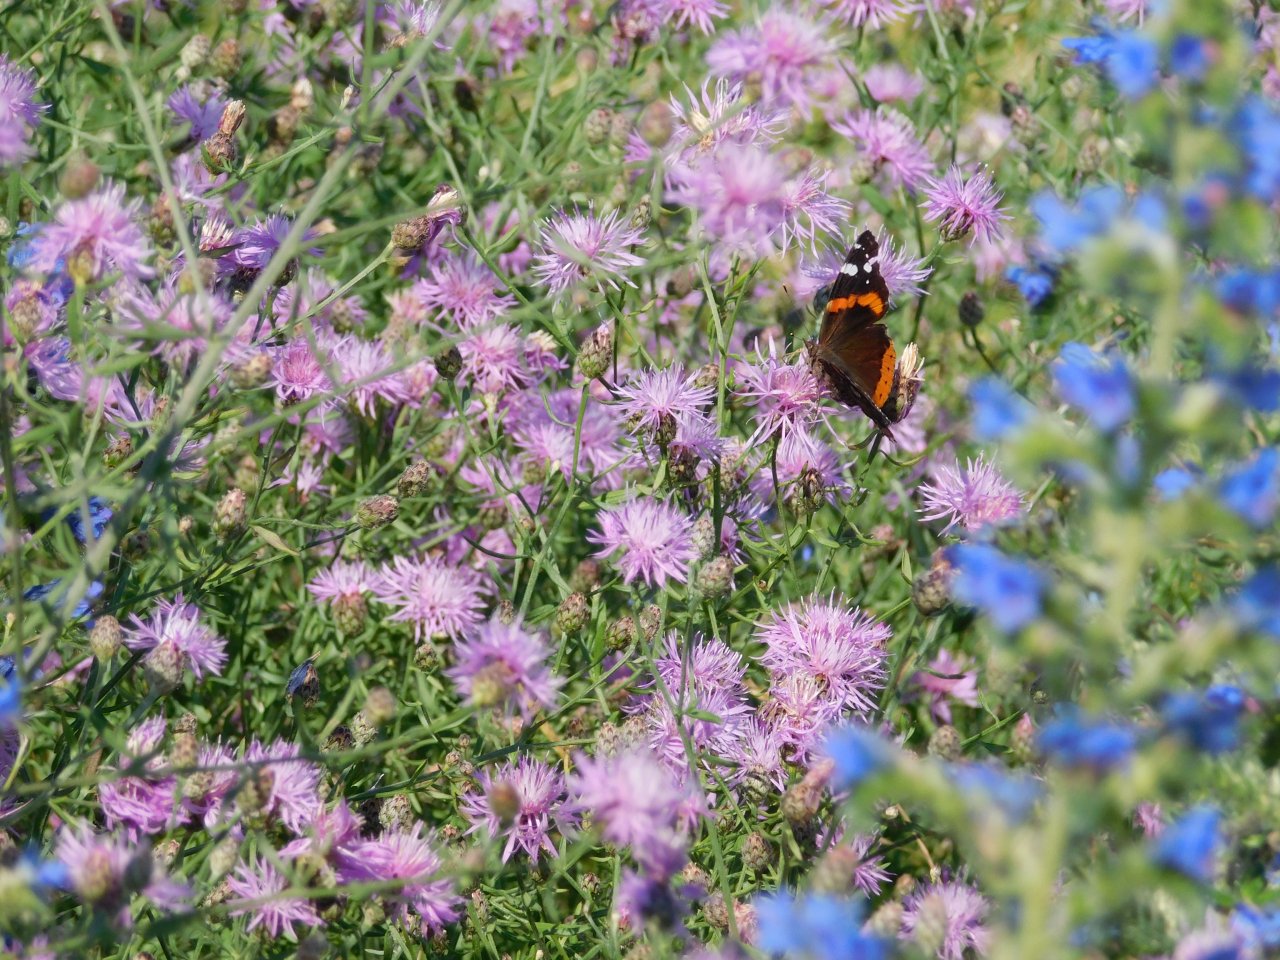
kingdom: Animalia
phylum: Arthropoda
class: Insecta
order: Lepidoptera
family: Nymphalidae
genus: Vanessa
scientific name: Vanessa atalanta
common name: Red Admiral
